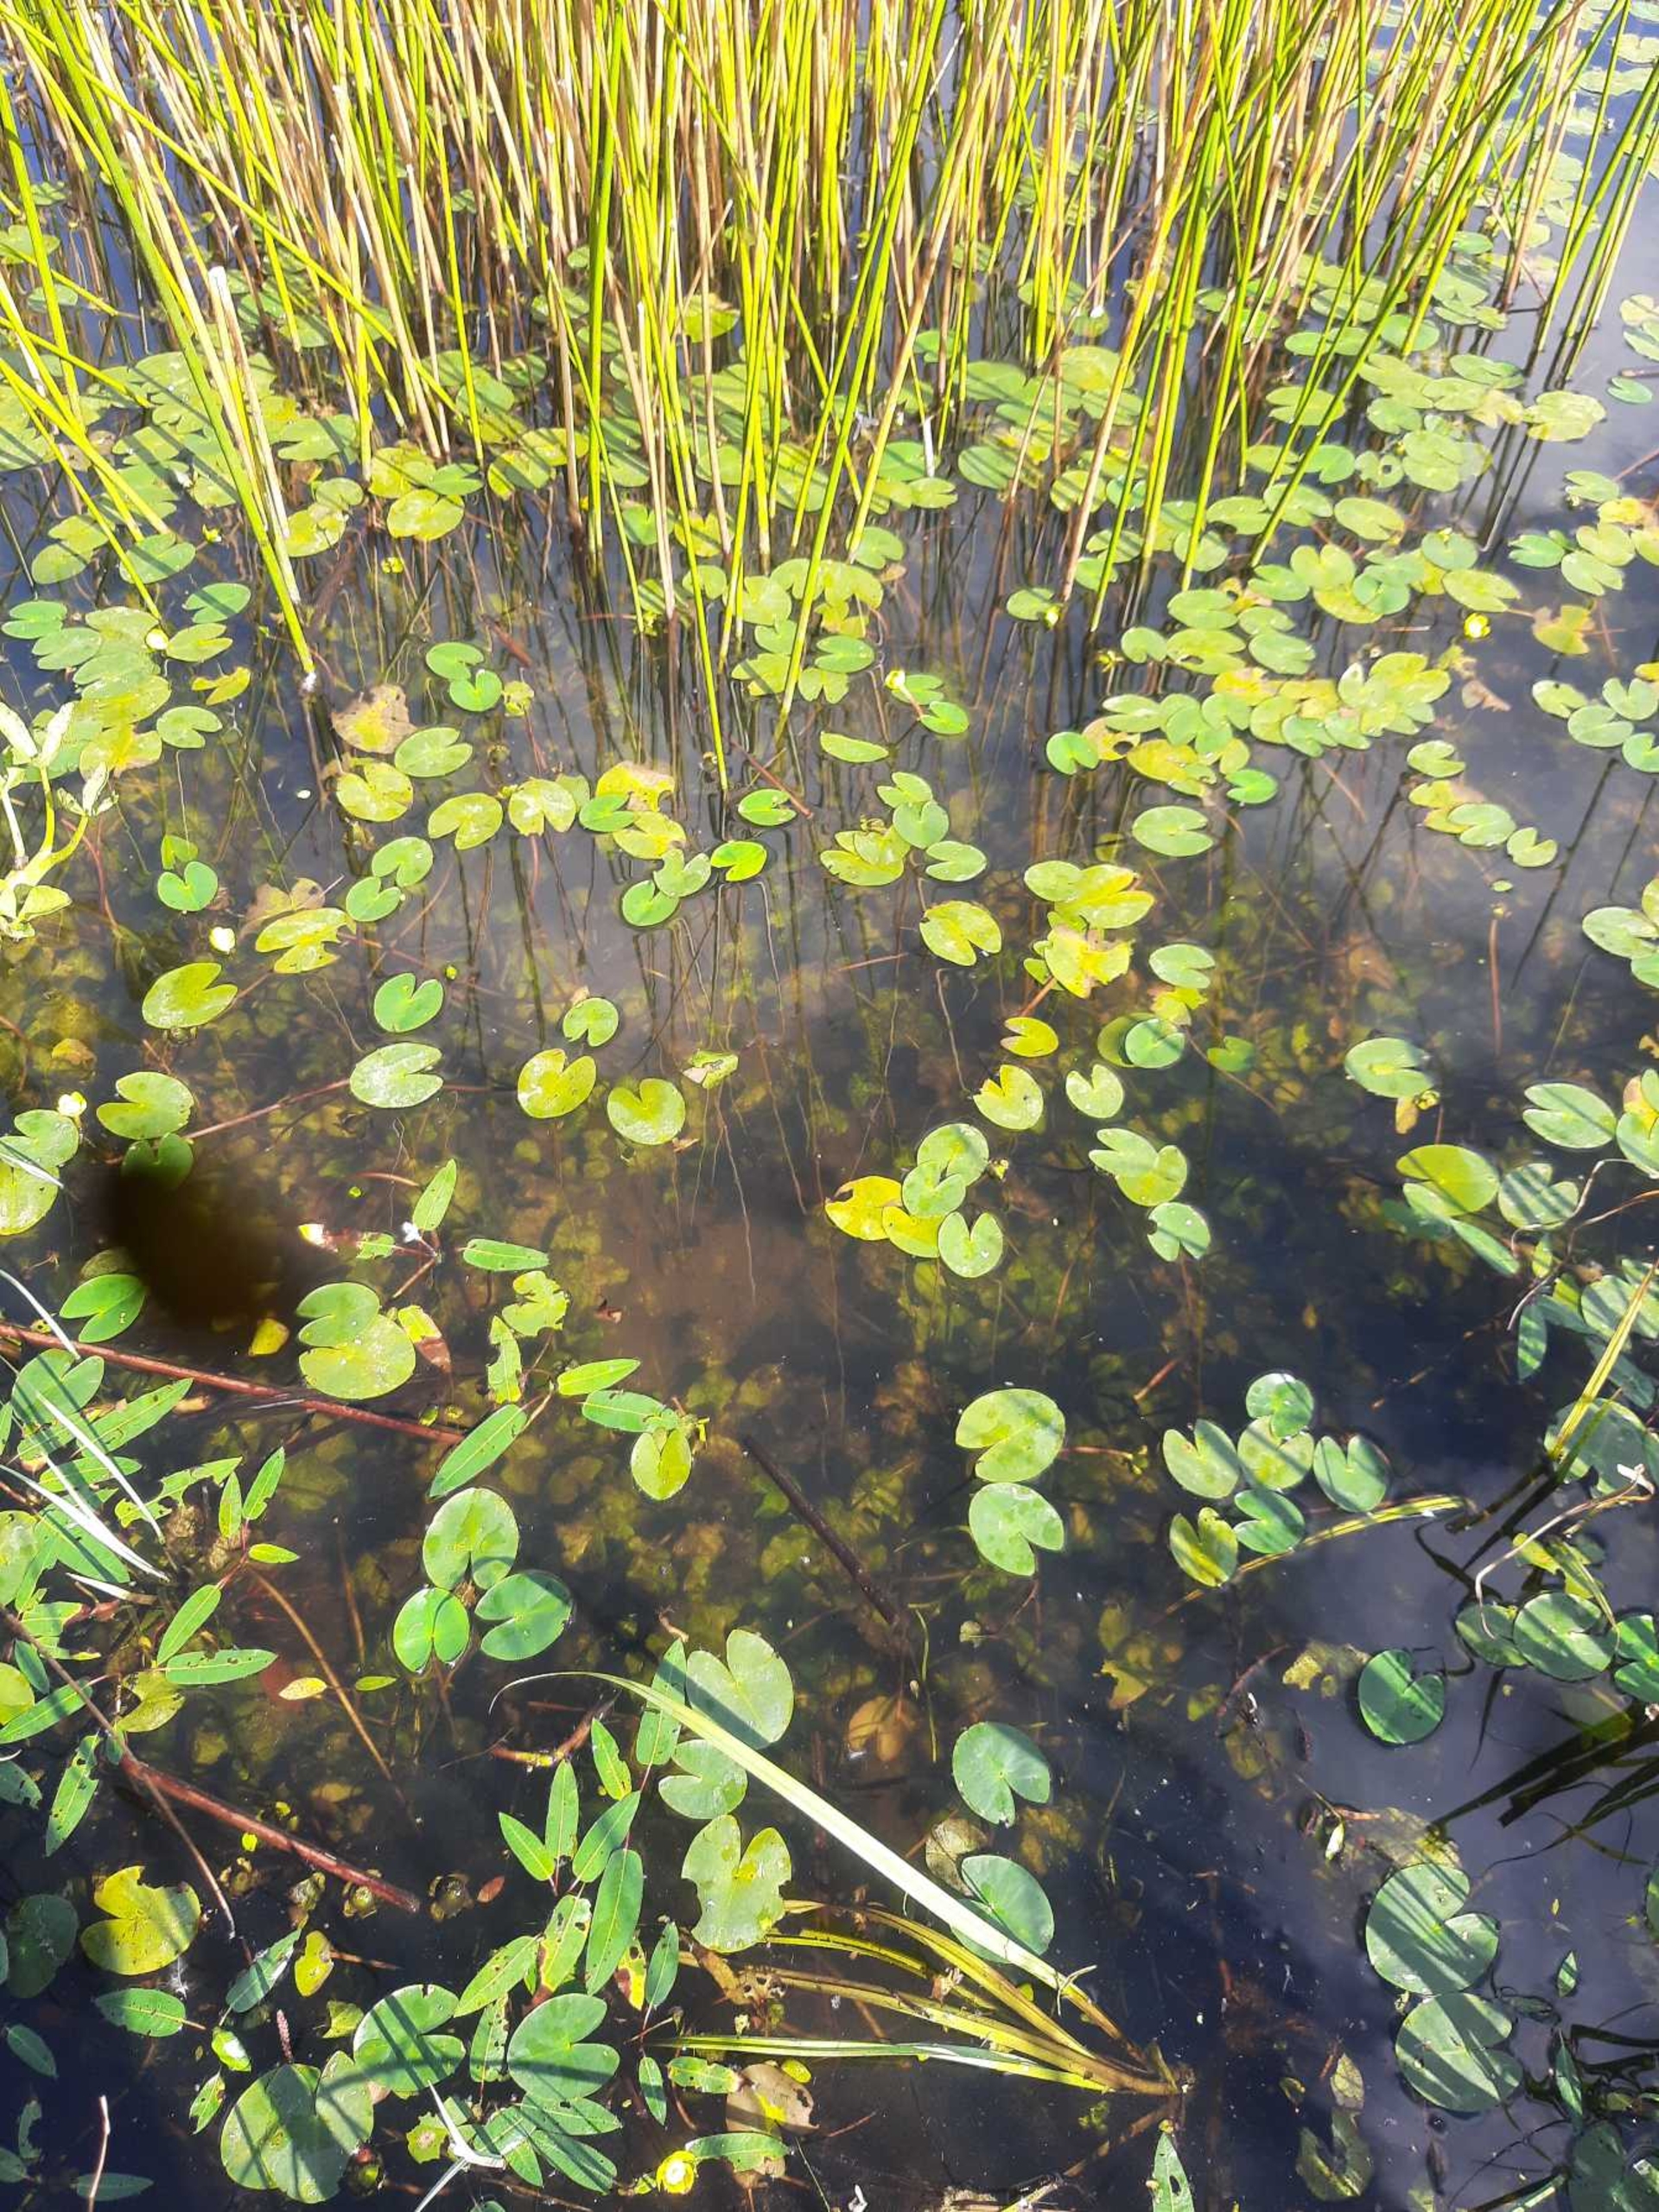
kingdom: Plantae
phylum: Tracheophyta
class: Magnoliopsida
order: Nymphaeales
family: Nymphaeaceae
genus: Nuphar
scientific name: Nuphar pumila
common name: Liden åkande
